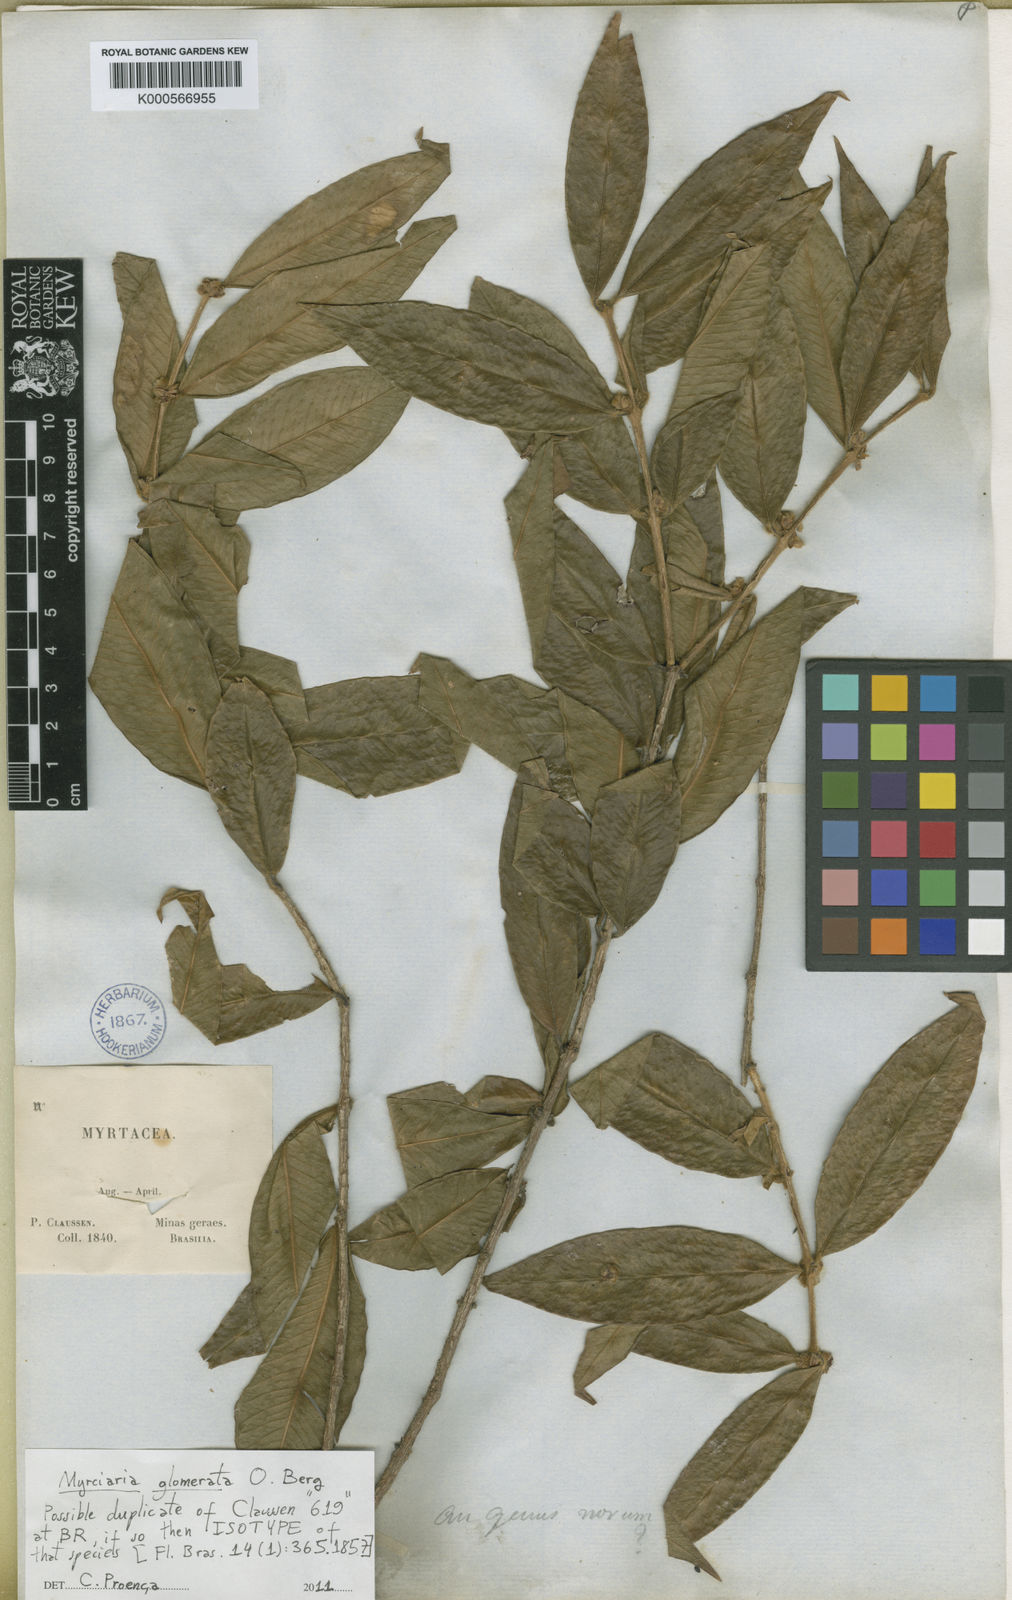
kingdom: Plantae
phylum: Tracheophyta
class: Magnoliopsida
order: Myrtales
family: Myrtaceae
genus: Myrciaria
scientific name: Myrciaria glomerata
